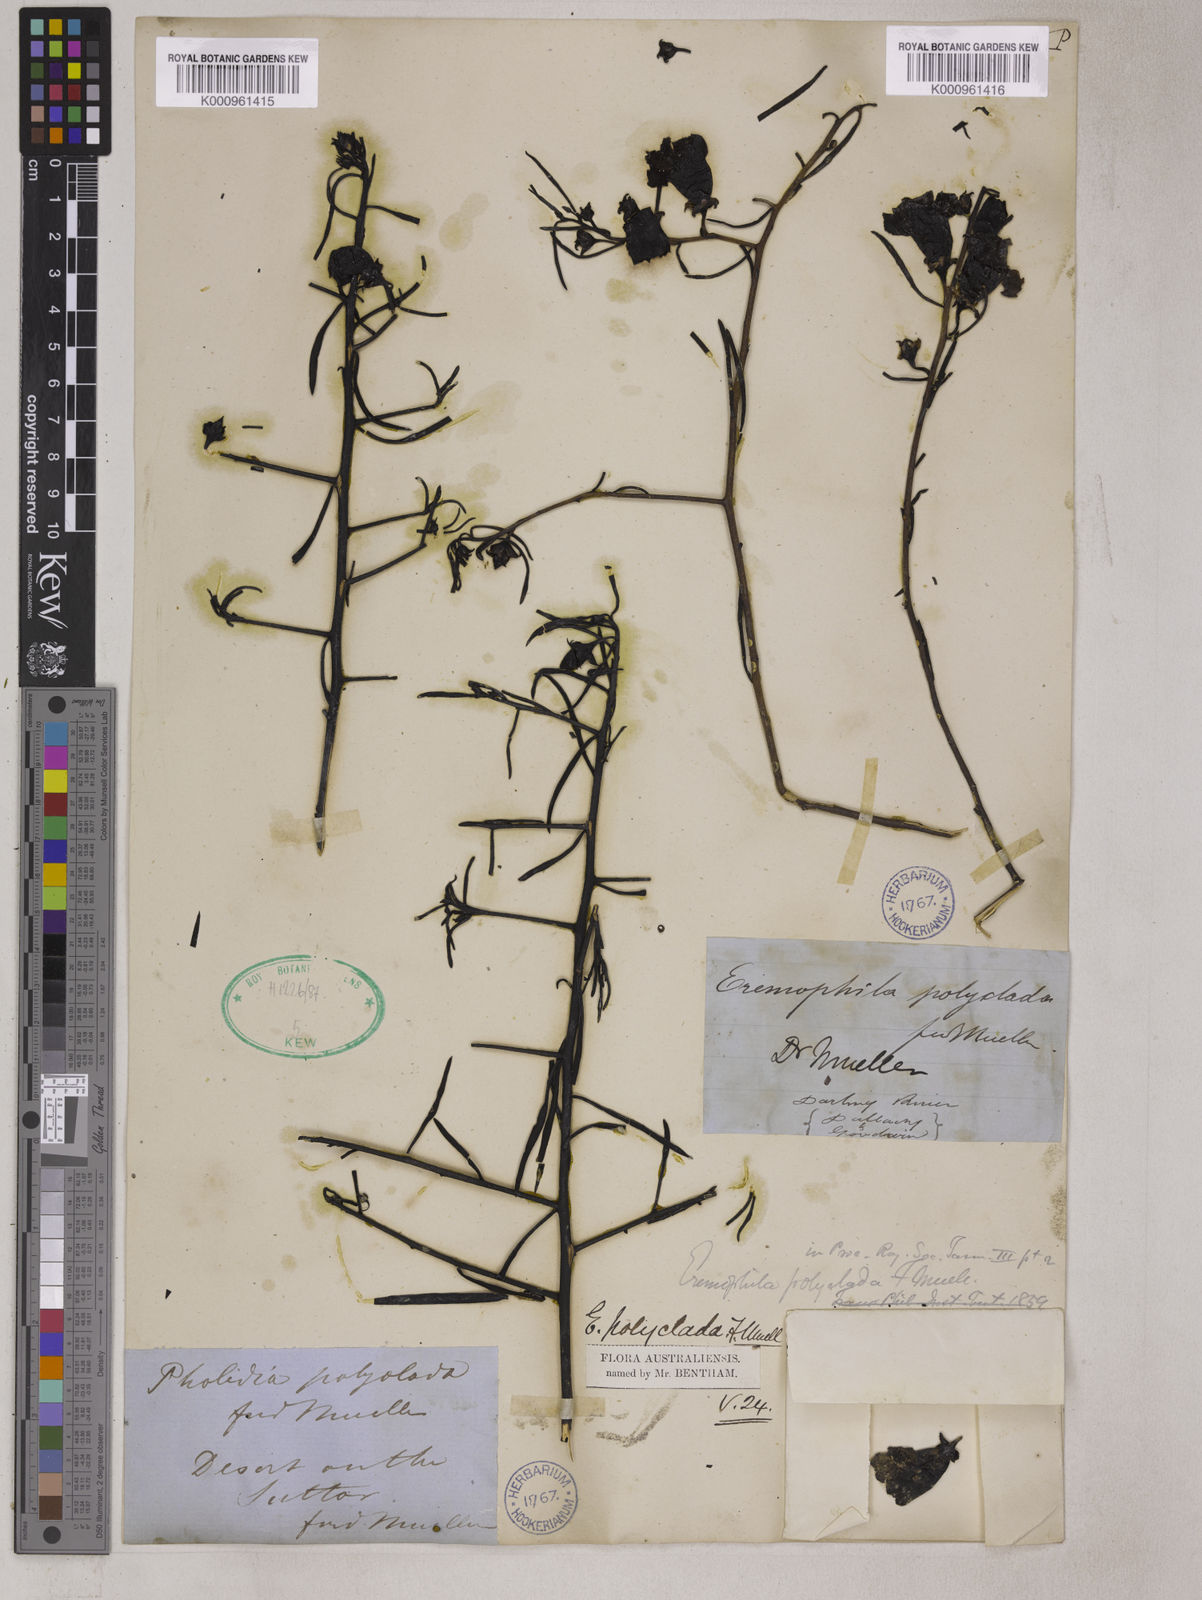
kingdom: Plantae
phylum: Tracheophyta
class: Magnoliopsida
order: Lamiales
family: Scrophulariaceae
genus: Eremophila
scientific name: Eremophila polyclada
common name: Lignum-fuchsia
